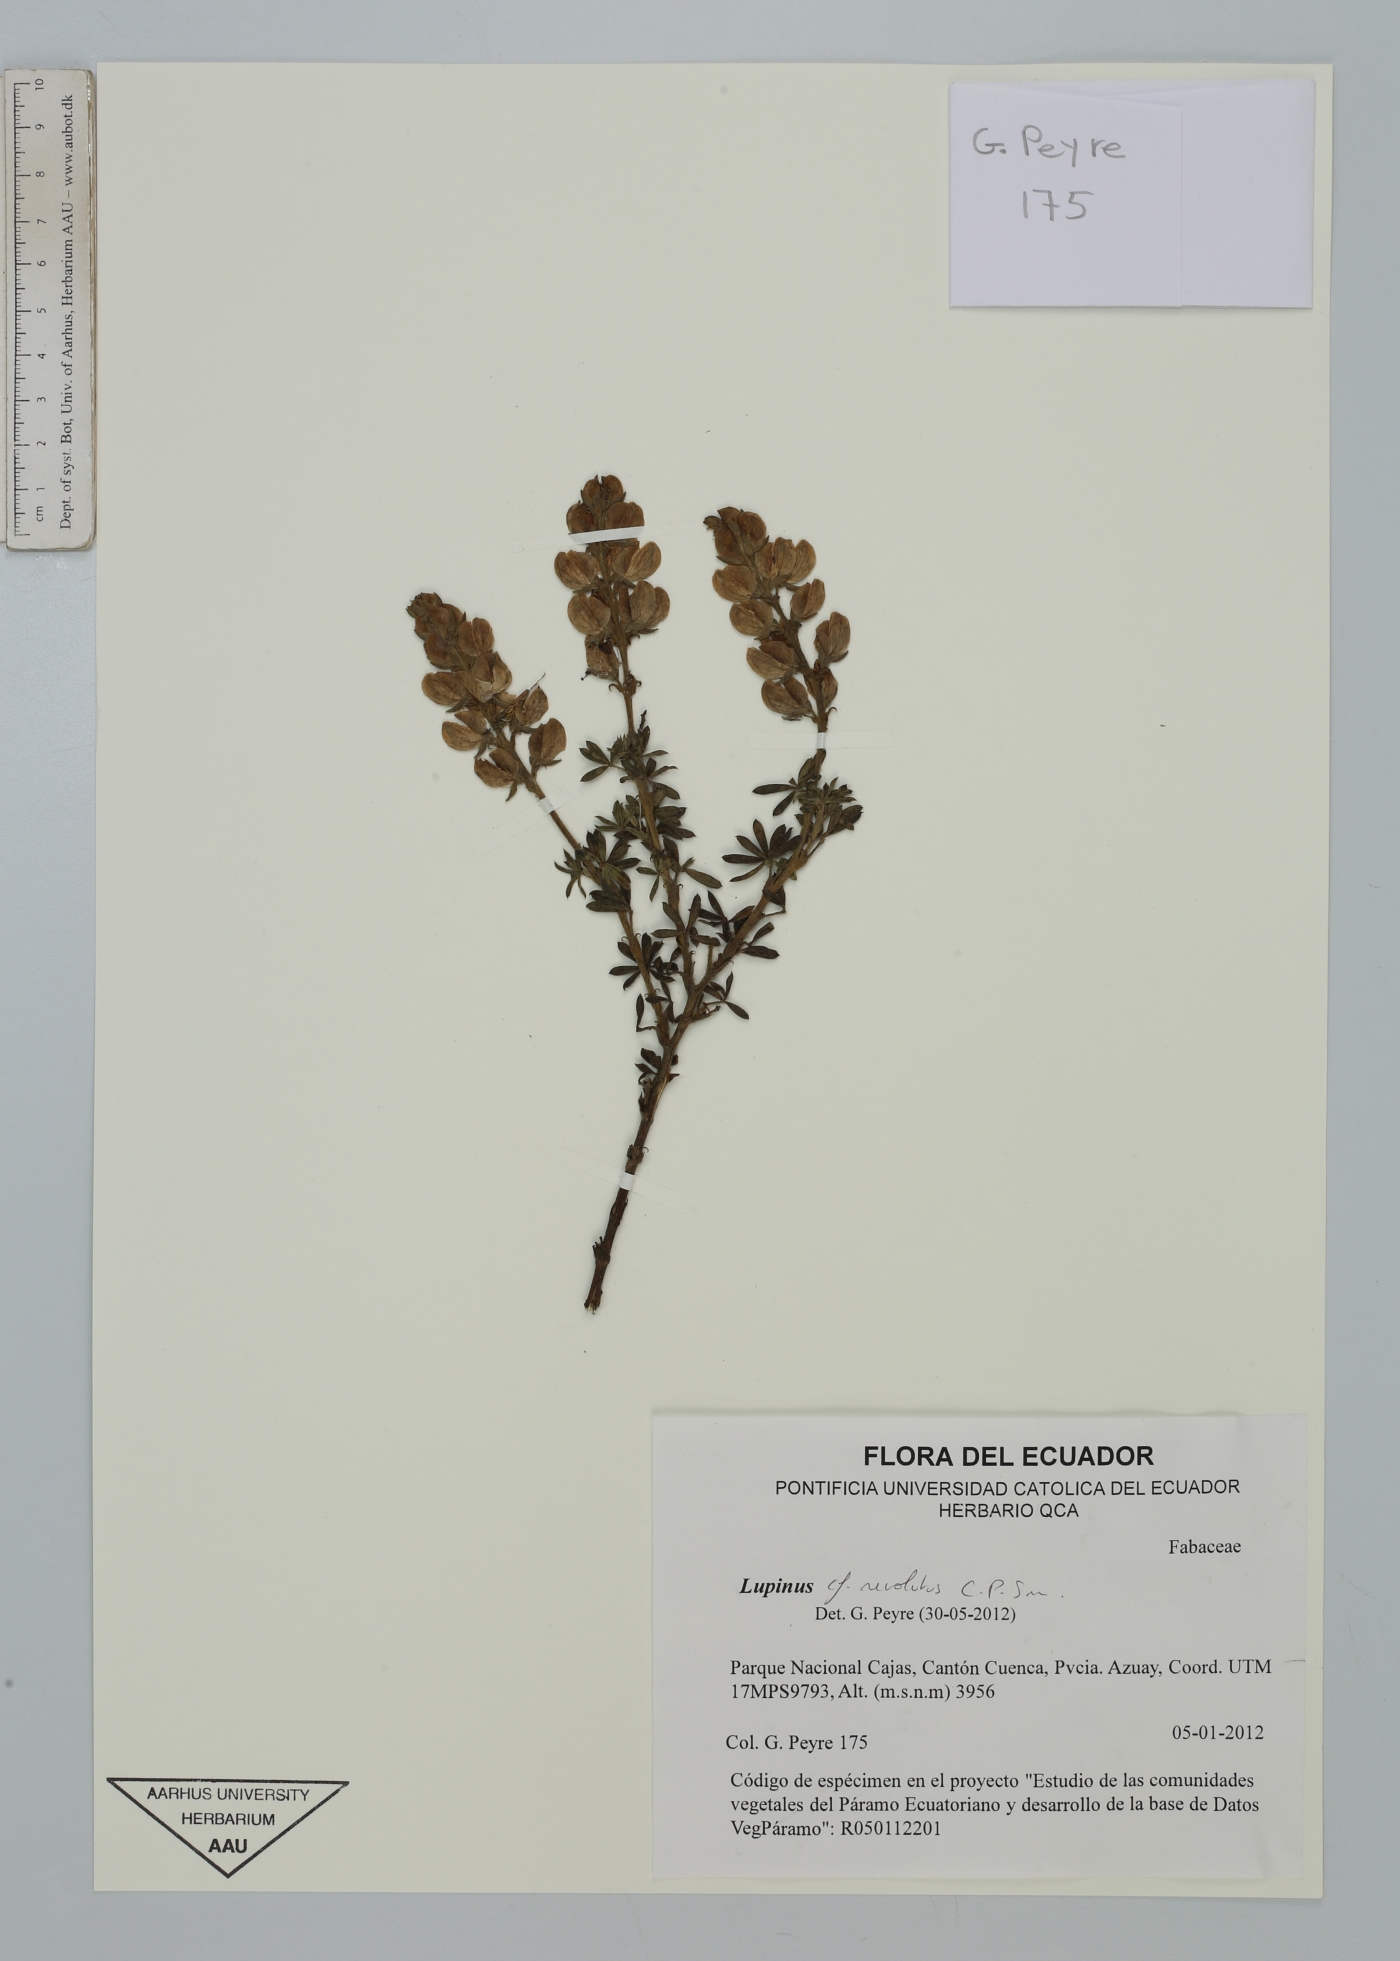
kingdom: Plantae
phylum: Tracheophyta
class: Magnoliopsida
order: Fabales
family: Fabaceae
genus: Lupinus
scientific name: Lupinus revolutus
